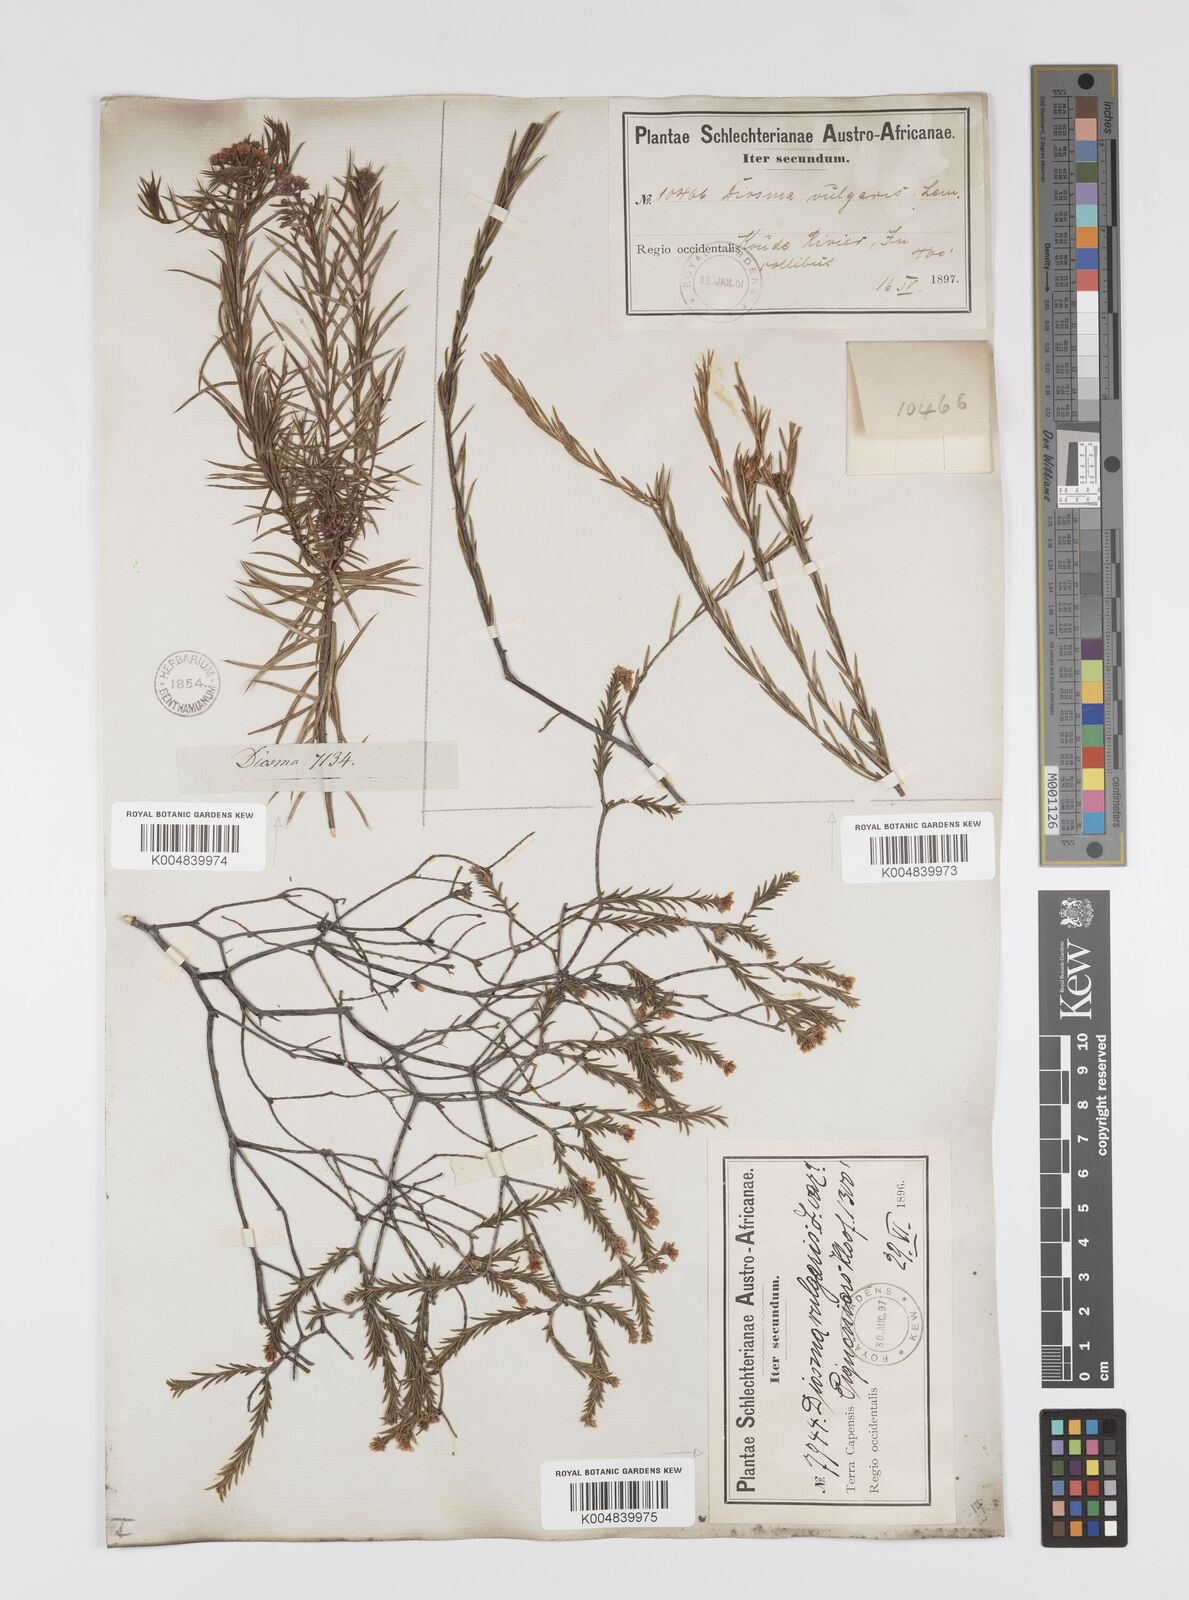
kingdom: Plantae
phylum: Tracheophyta
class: Magnoliopsida
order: Sapindales
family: Rutaceae
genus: Diosma
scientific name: Diosma acmaeophylla
